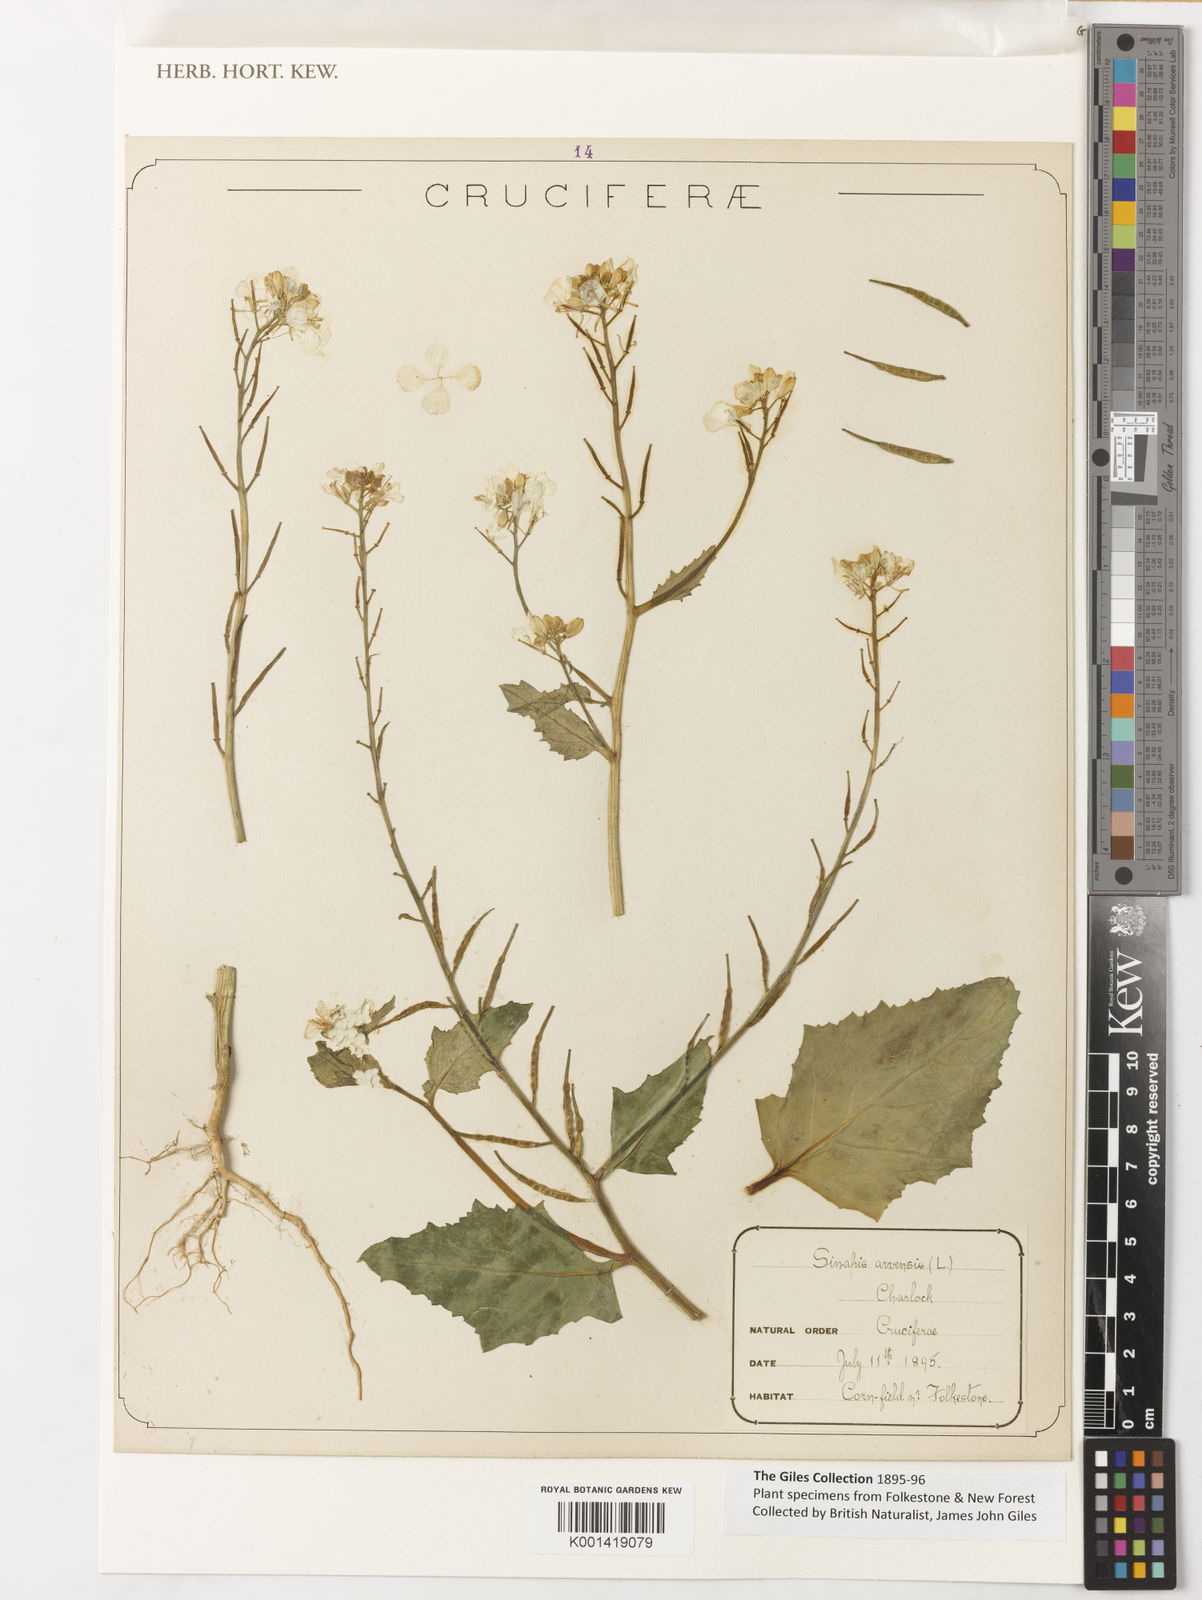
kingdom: Plantae
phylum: Tracheophyta
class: Magnoliopsida
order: Brassicales
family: Brassicaceae
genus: Sinapis
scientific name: Sinapis arvensis
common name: Charlock
